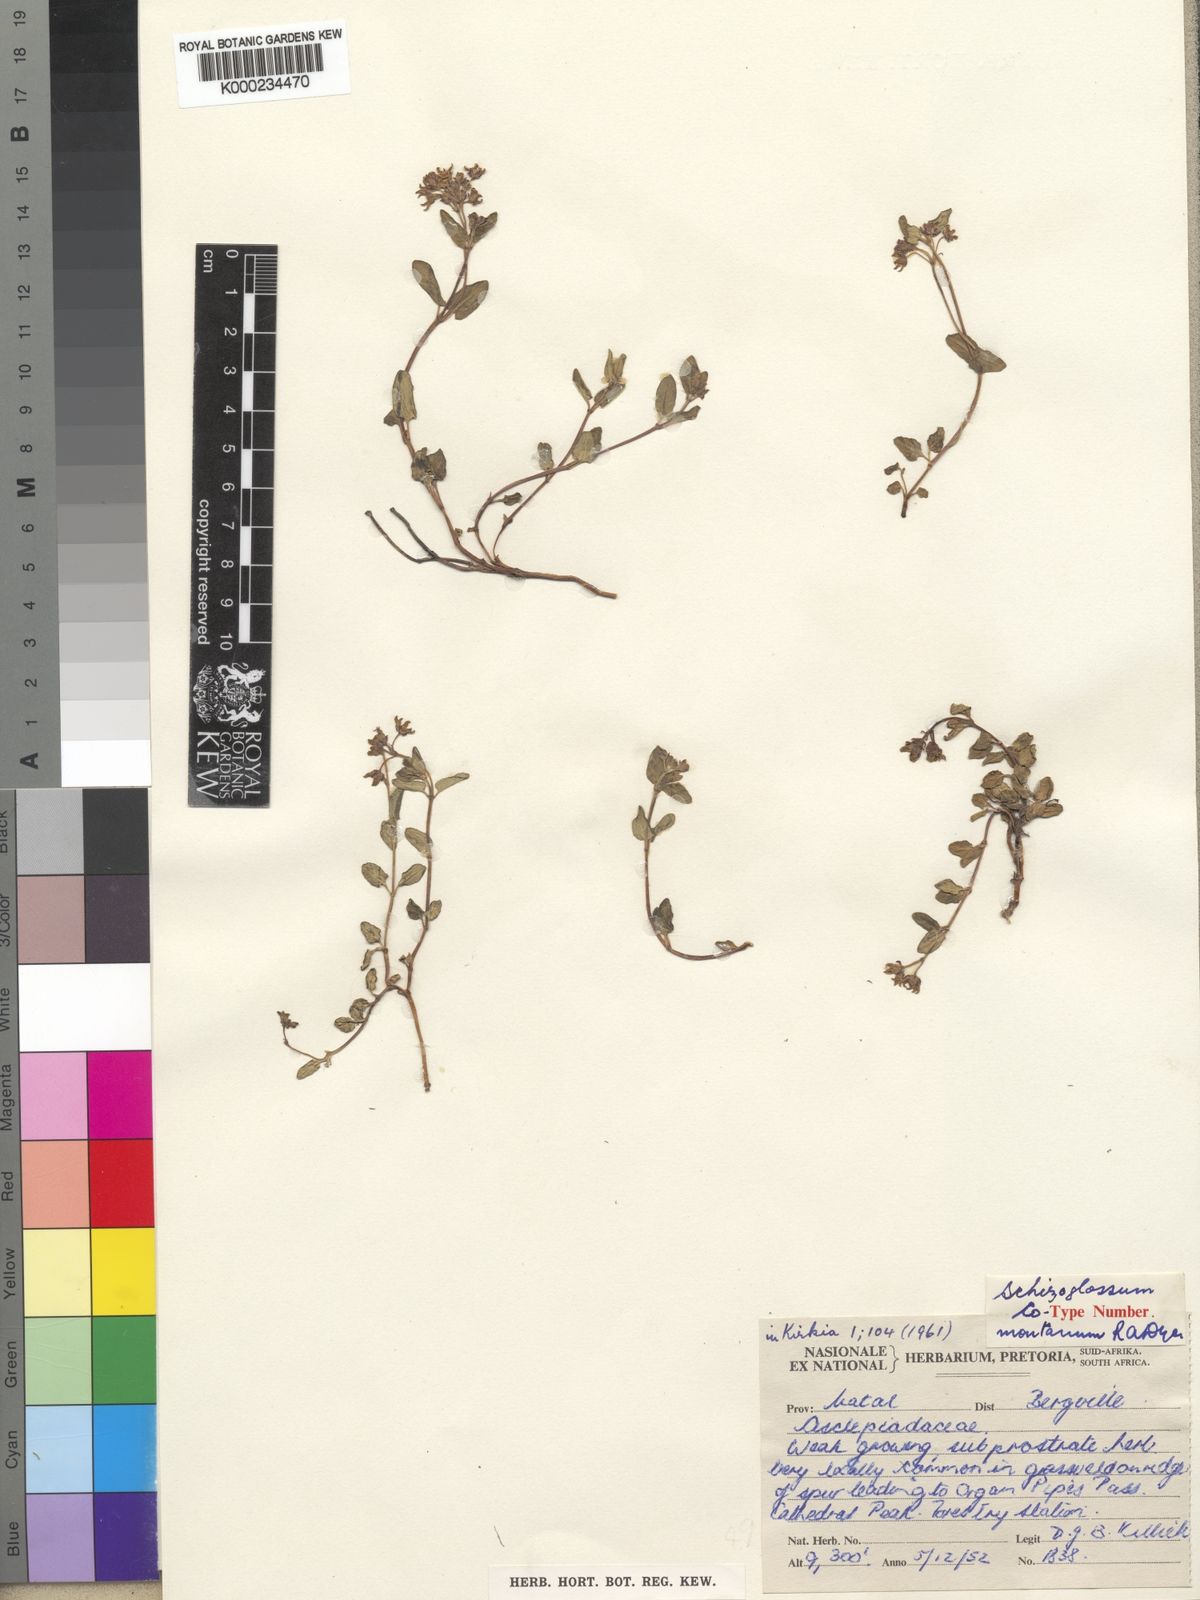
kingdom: Plantae
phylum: Tracheophyta
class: Magnoliopsida
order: Gentianales
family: Apocynaceae
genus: Schizoglossum
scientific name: Schizoglossum montanum
